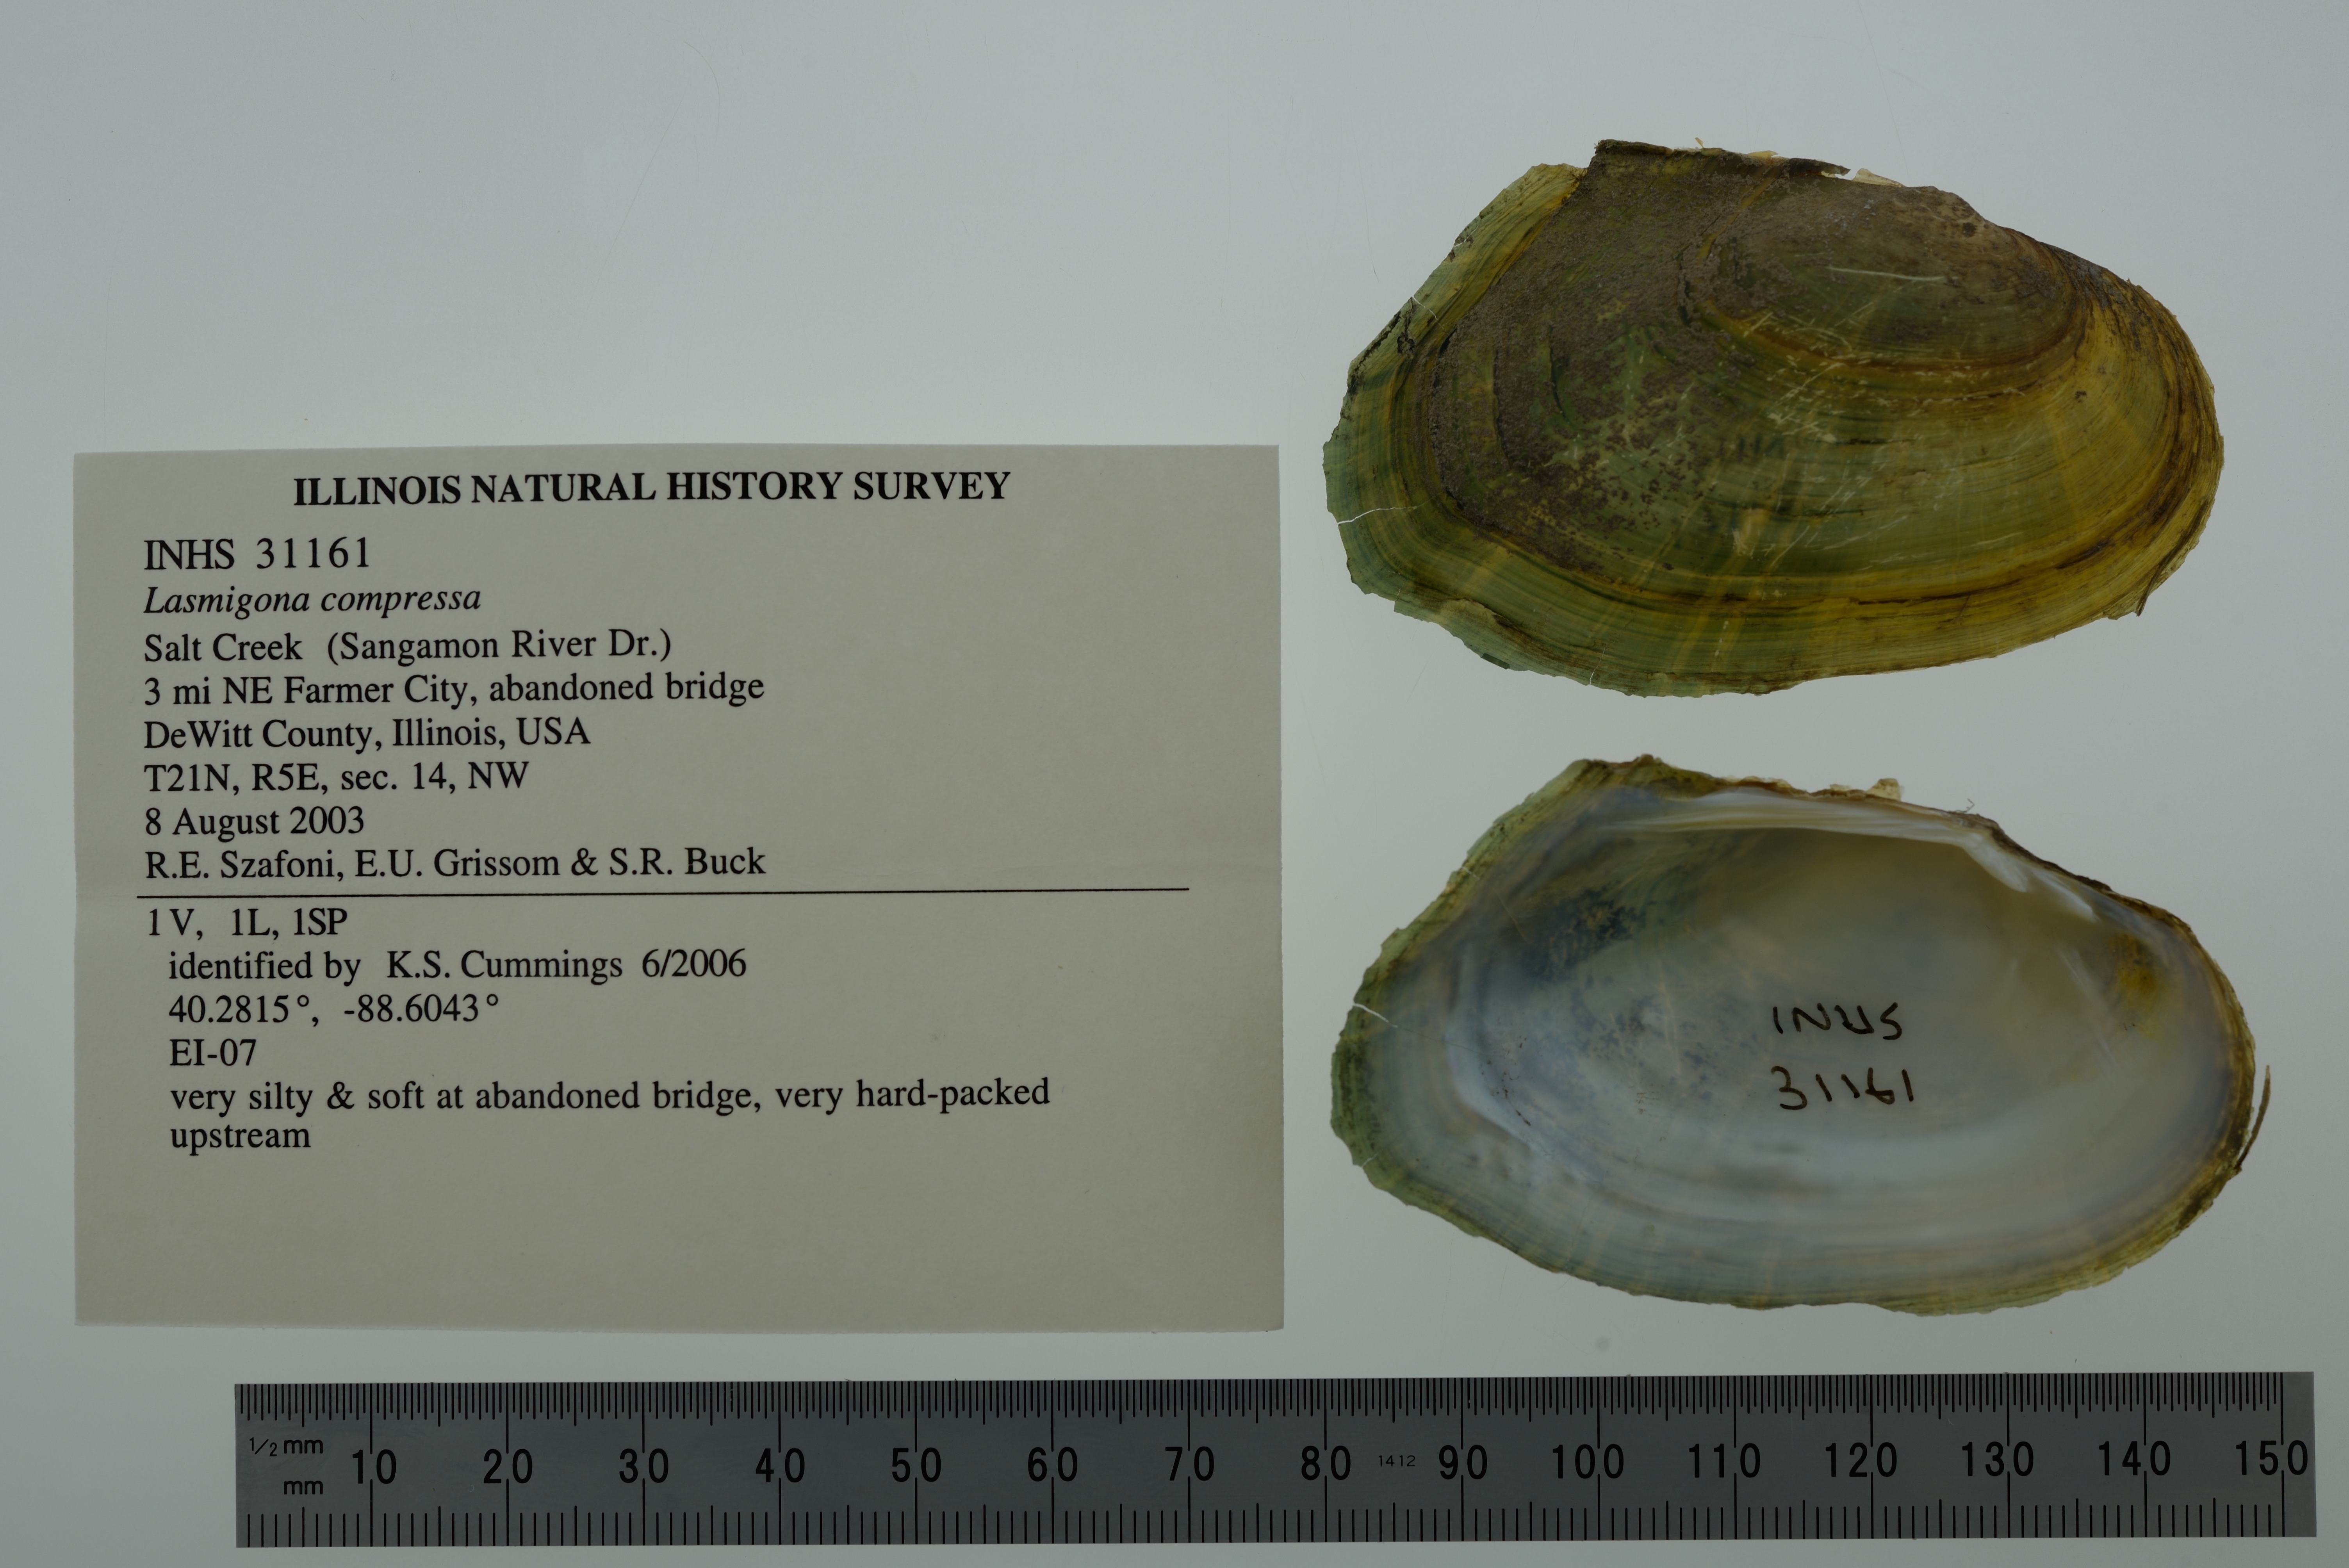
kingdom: Animalia
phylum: Mollusca
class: Bivalvia
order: Unionida
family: Unionidae
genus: Lasmigona
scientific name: Lasmigona compressa
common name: Creek heelsplitter
